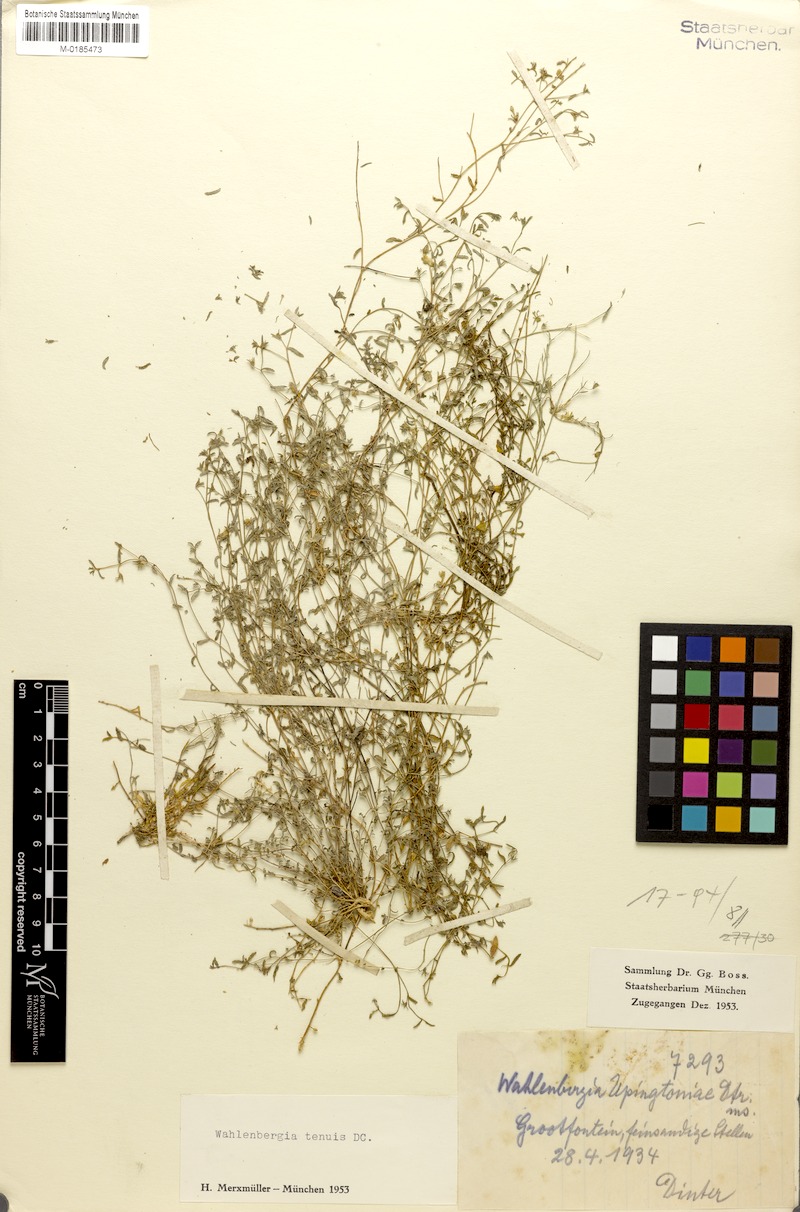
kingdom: Plantae
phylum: Tracheophyta
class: Magnoliopsida
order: Asterales
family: Campanulaceae
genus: Wahlenbergia
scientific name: Wahlenbergia tenuis
